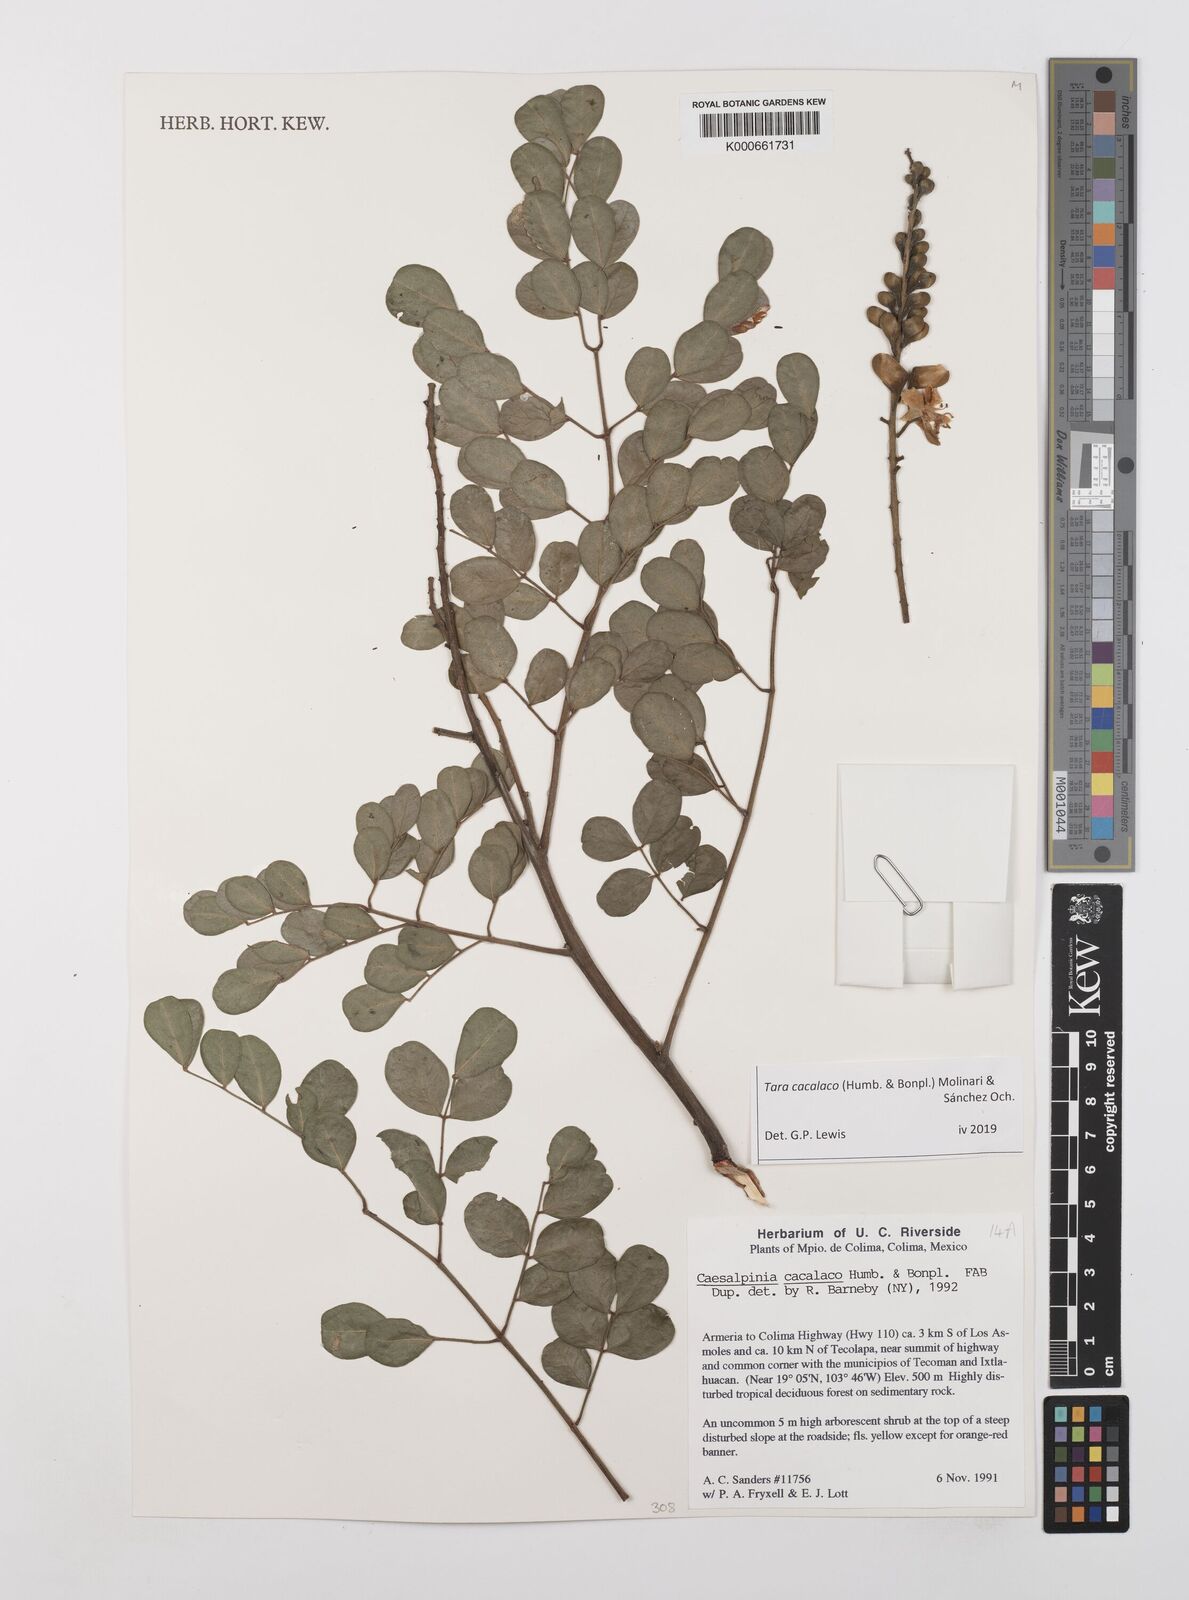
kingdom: Plantae
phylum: Tracheophyta
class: Magnoliopsida
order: Fabales
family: Fabaceae
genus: Tara
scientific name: Tara cacalaco
